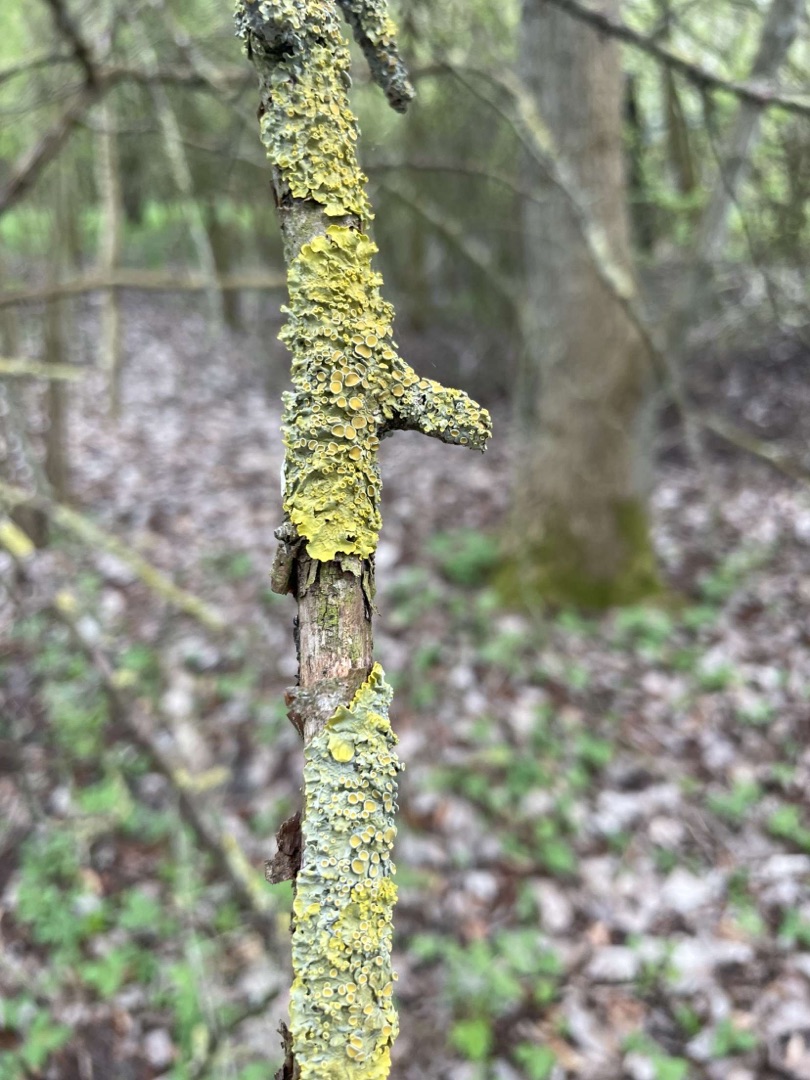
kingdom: Fungi
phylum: Ascomycota
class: Lecanoromycetes
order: Teloschistales
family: Teloschistaceae
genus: Xanthoria
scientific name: Xanthoria parietina
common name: Almindelig væggelav
